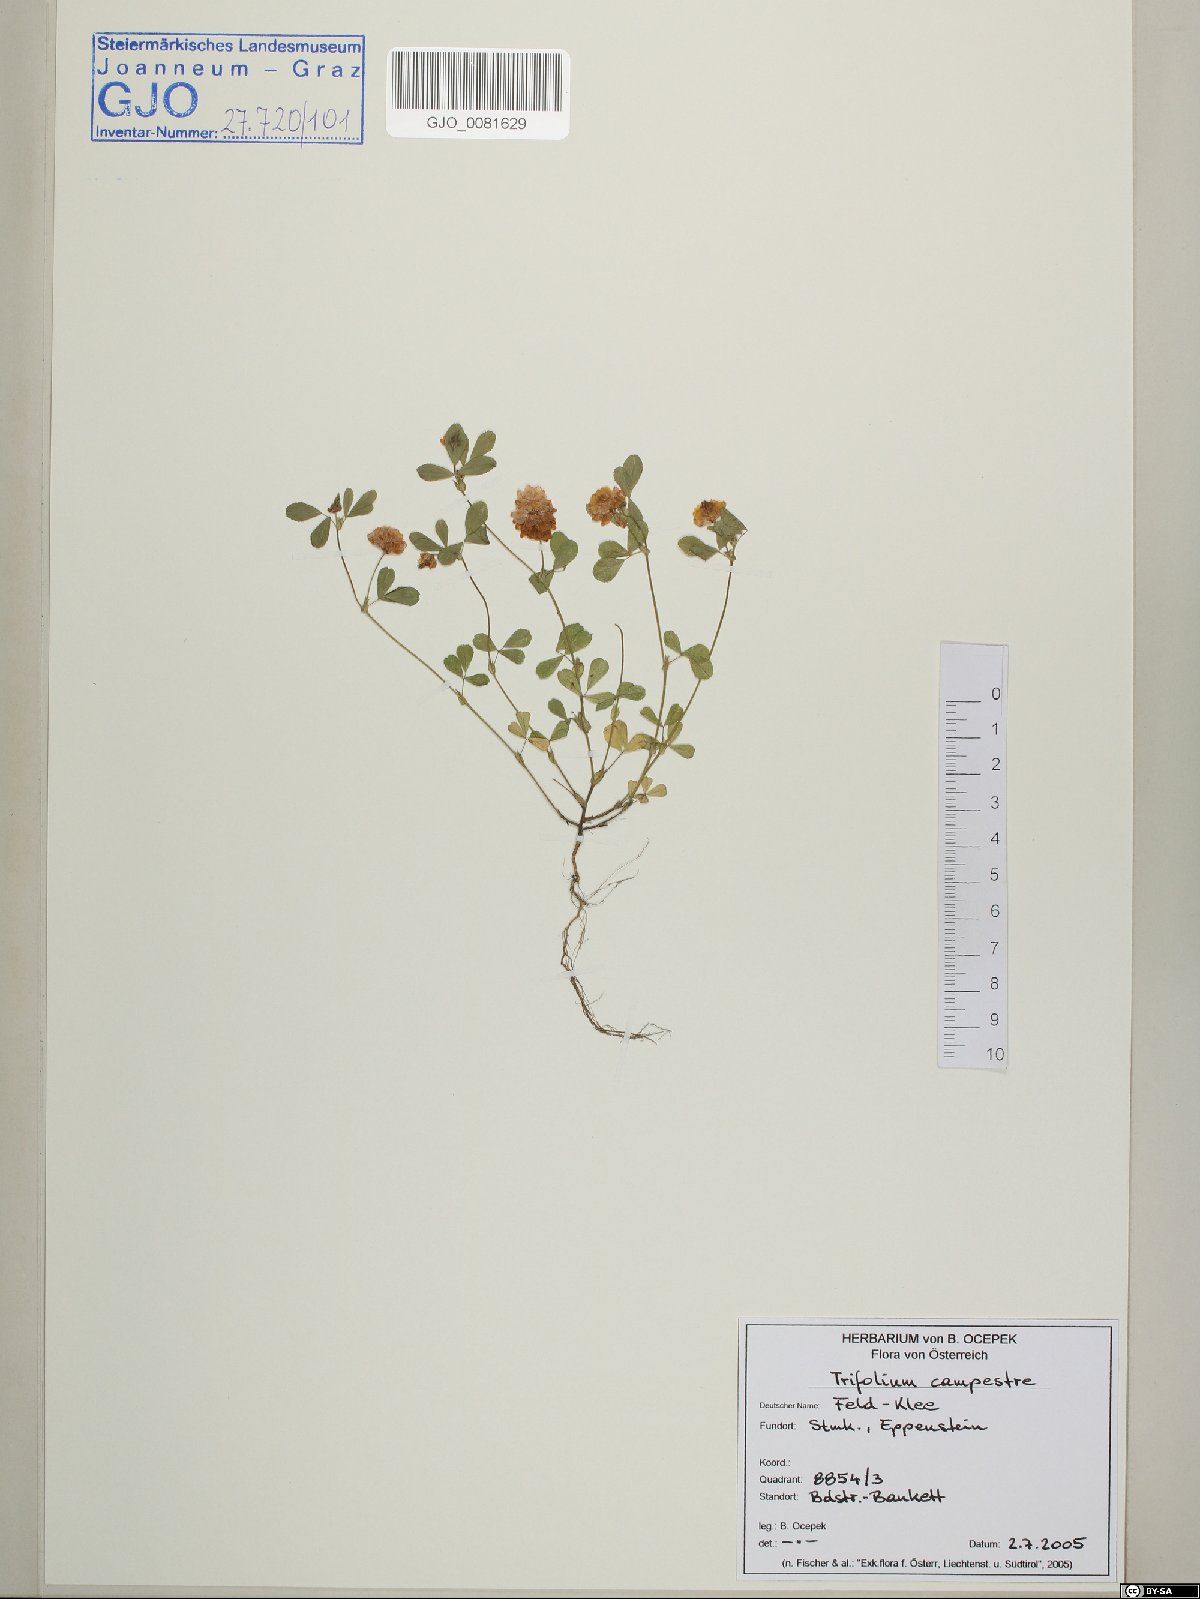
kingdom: Plantae
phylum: Tracheophyta
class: Magnoliopsida
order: Fabales
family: Fabaceae
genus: Trifolium
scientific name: Trifolium campestre
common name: Field clover
